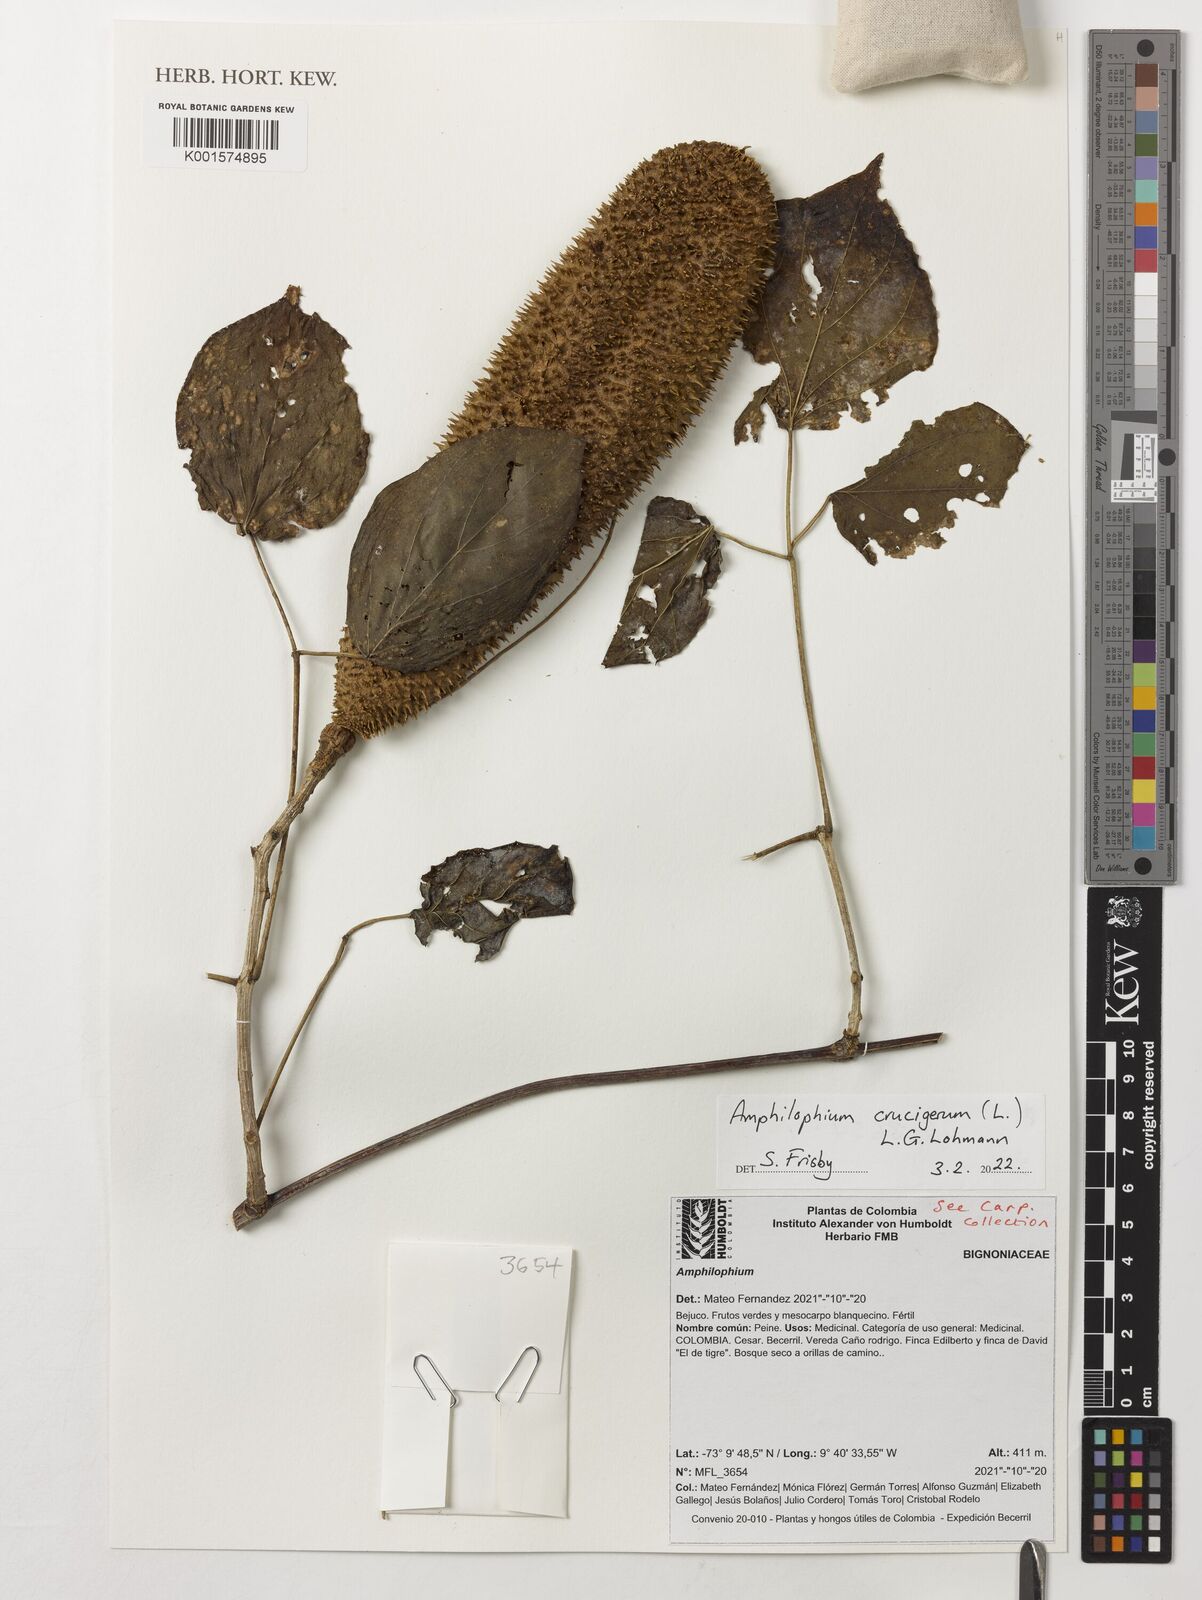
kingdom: Plantae
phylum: Tracheophyta
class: Magnoliopsida
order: Lamiales
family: Bignoniaceae
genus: Amphilophium
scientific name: Amphilophium crucigerum
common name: Monkey comb
